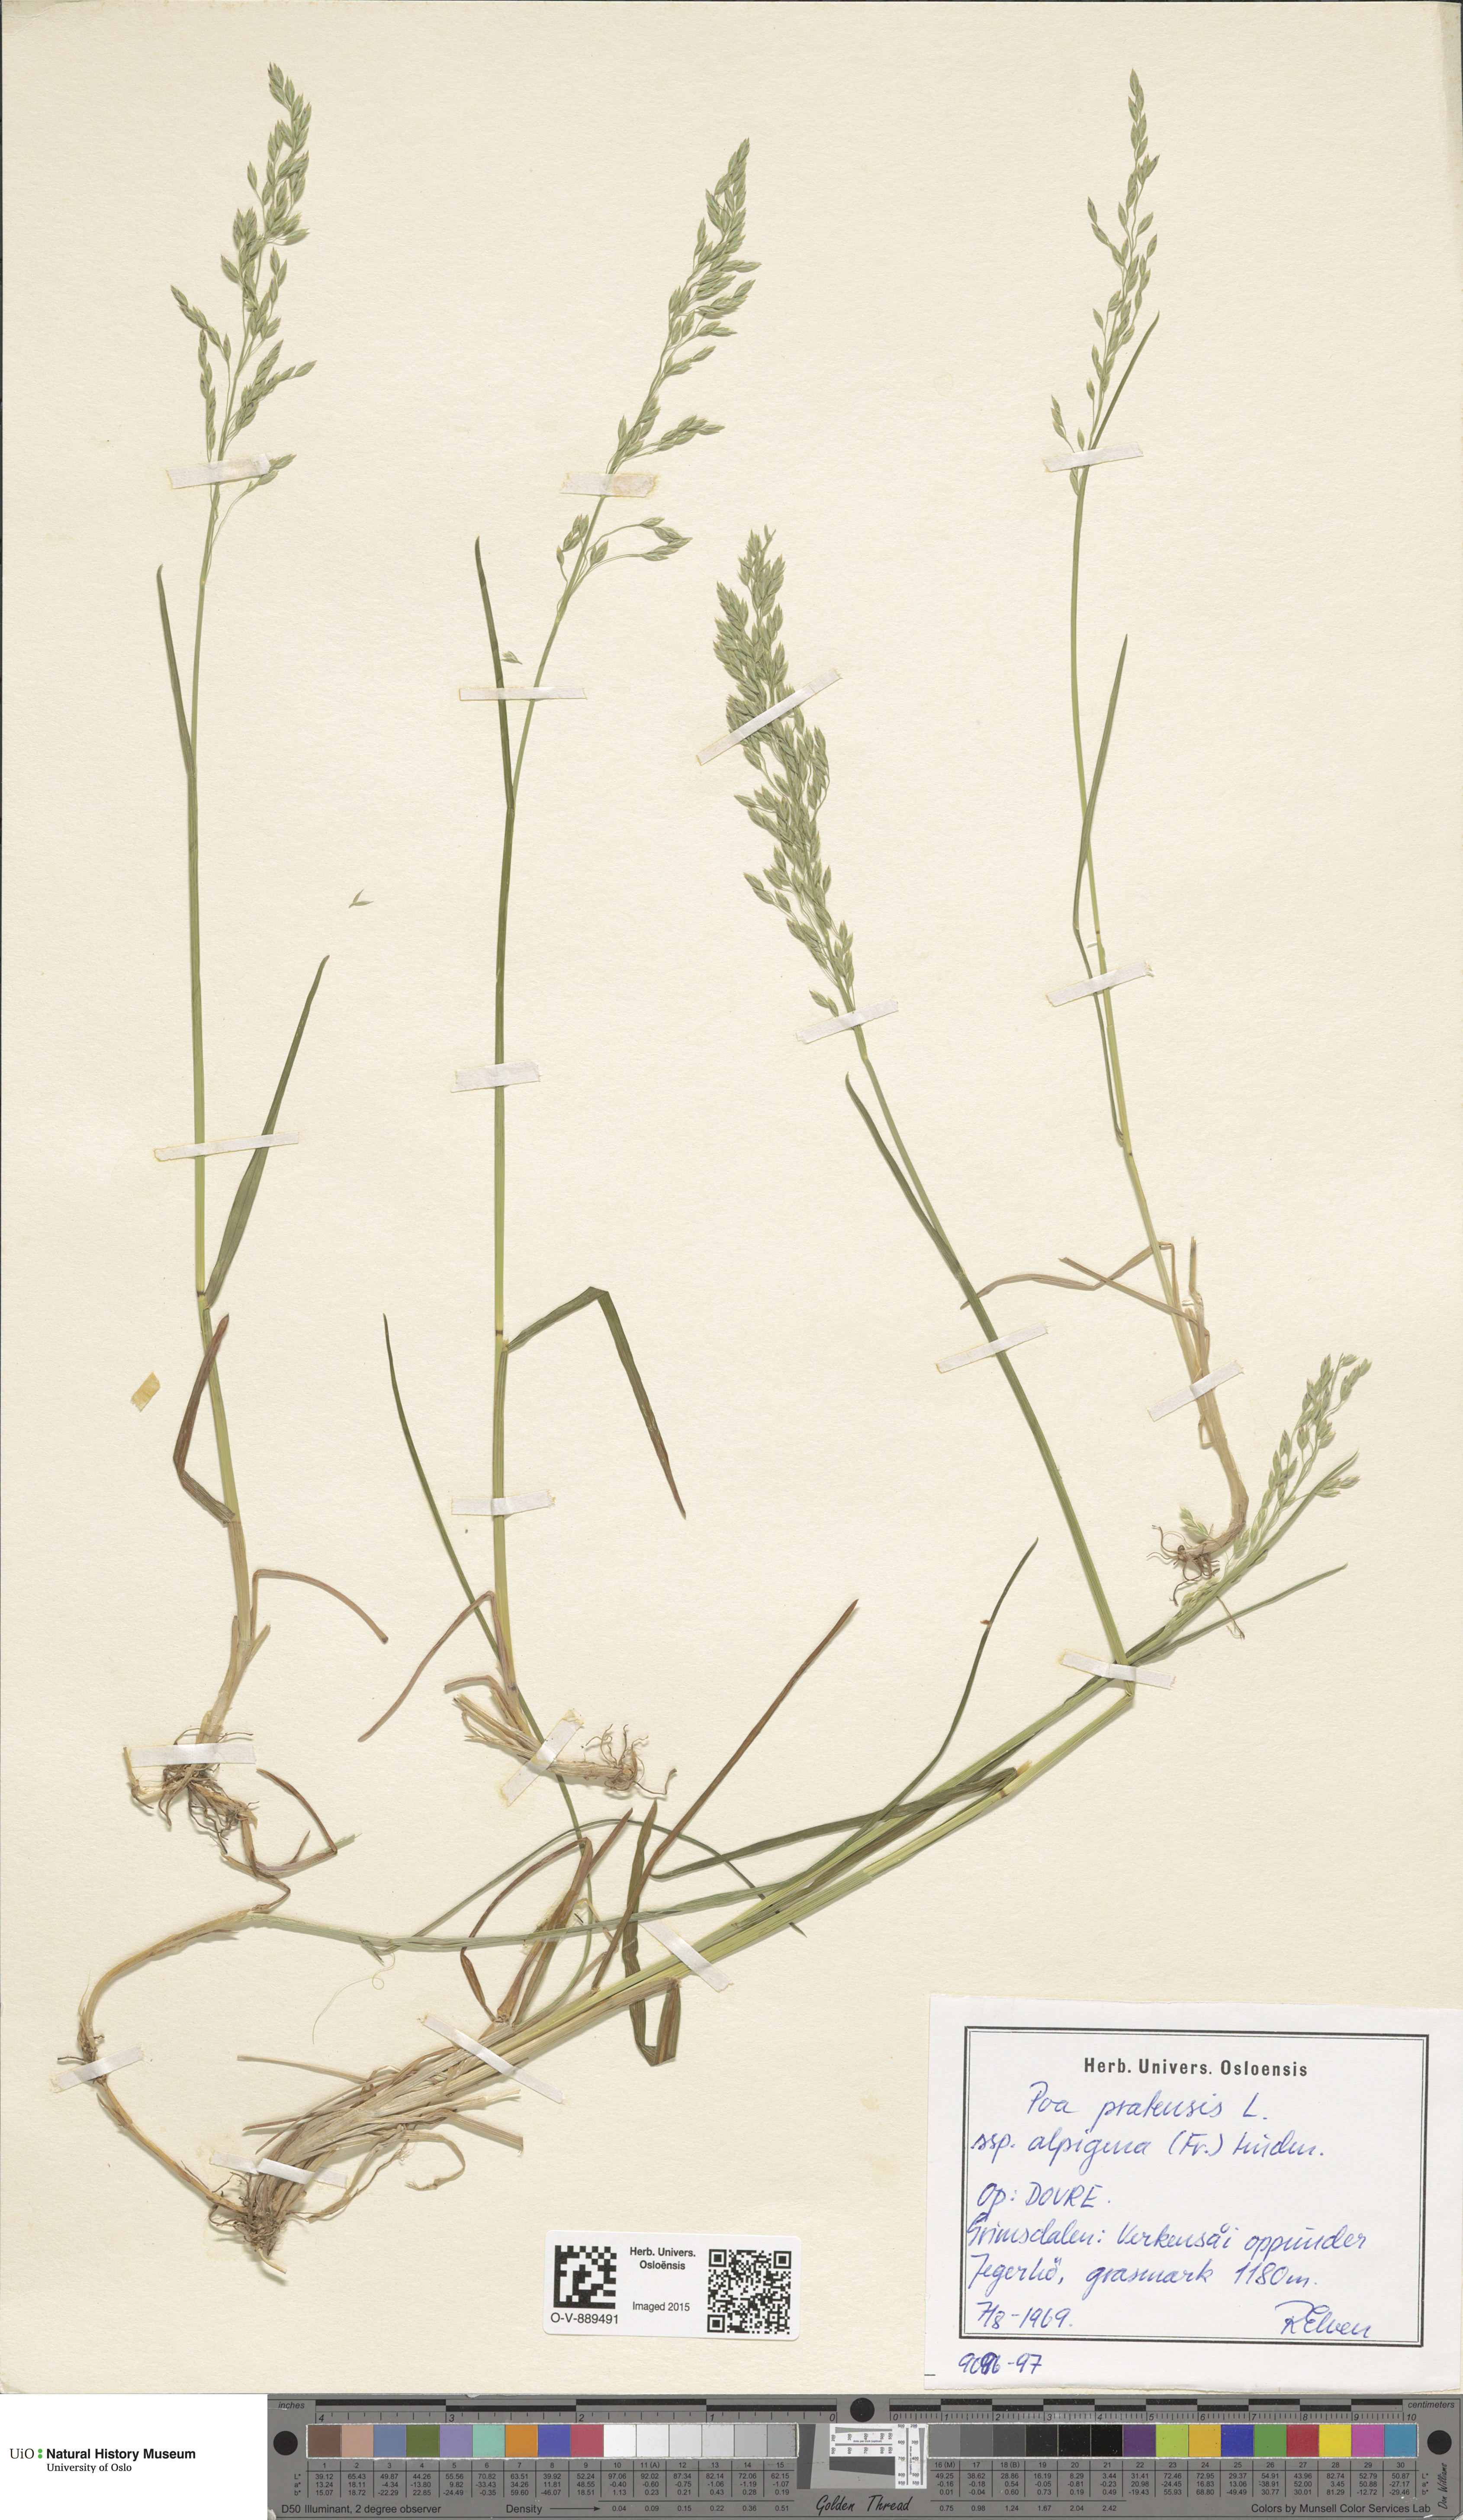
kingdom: Plantae
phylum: Tracheophyta
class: Liliopsida
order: Poales
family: Poaceae
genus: Poa
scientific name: Poa alpigena
